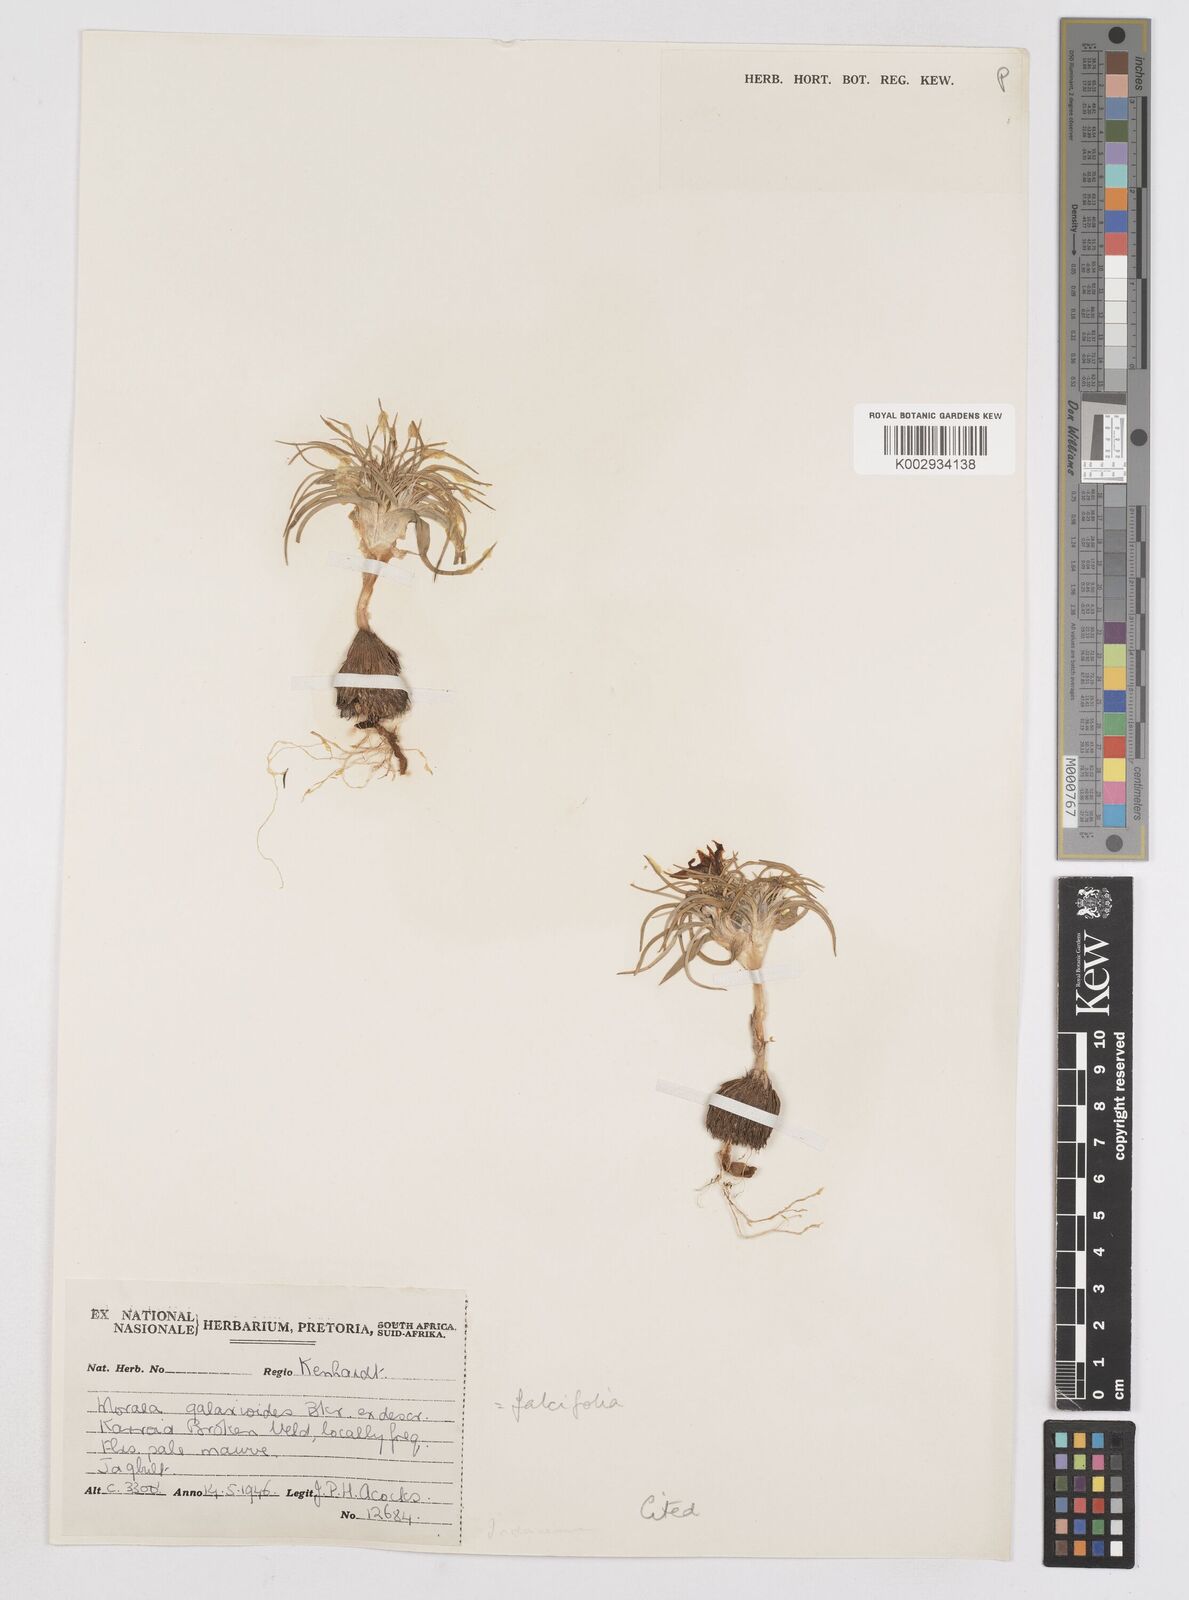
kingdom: Plantae
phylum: Tracheophyta
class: Liliopsida
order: Asparagales
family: Iridaceae
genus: Moraea
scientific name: Moraea falcifolia
